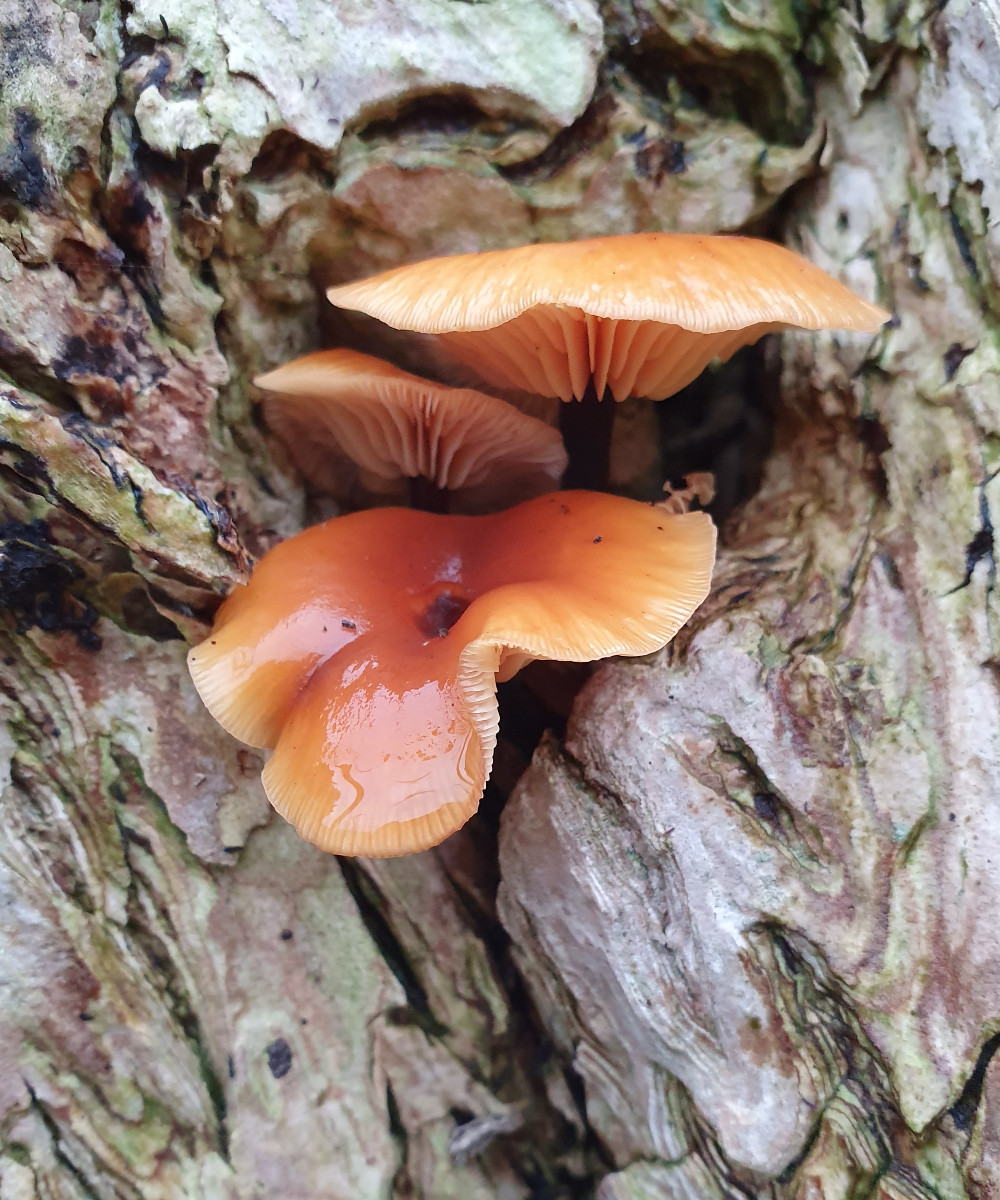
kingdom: Fungi
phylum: Basidiomycota
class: Agaricomycetes
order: Agaricales
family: Physalacriaceae
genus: Flammulina
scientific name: Flammulina velutipes
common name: gul fløjlsfod
